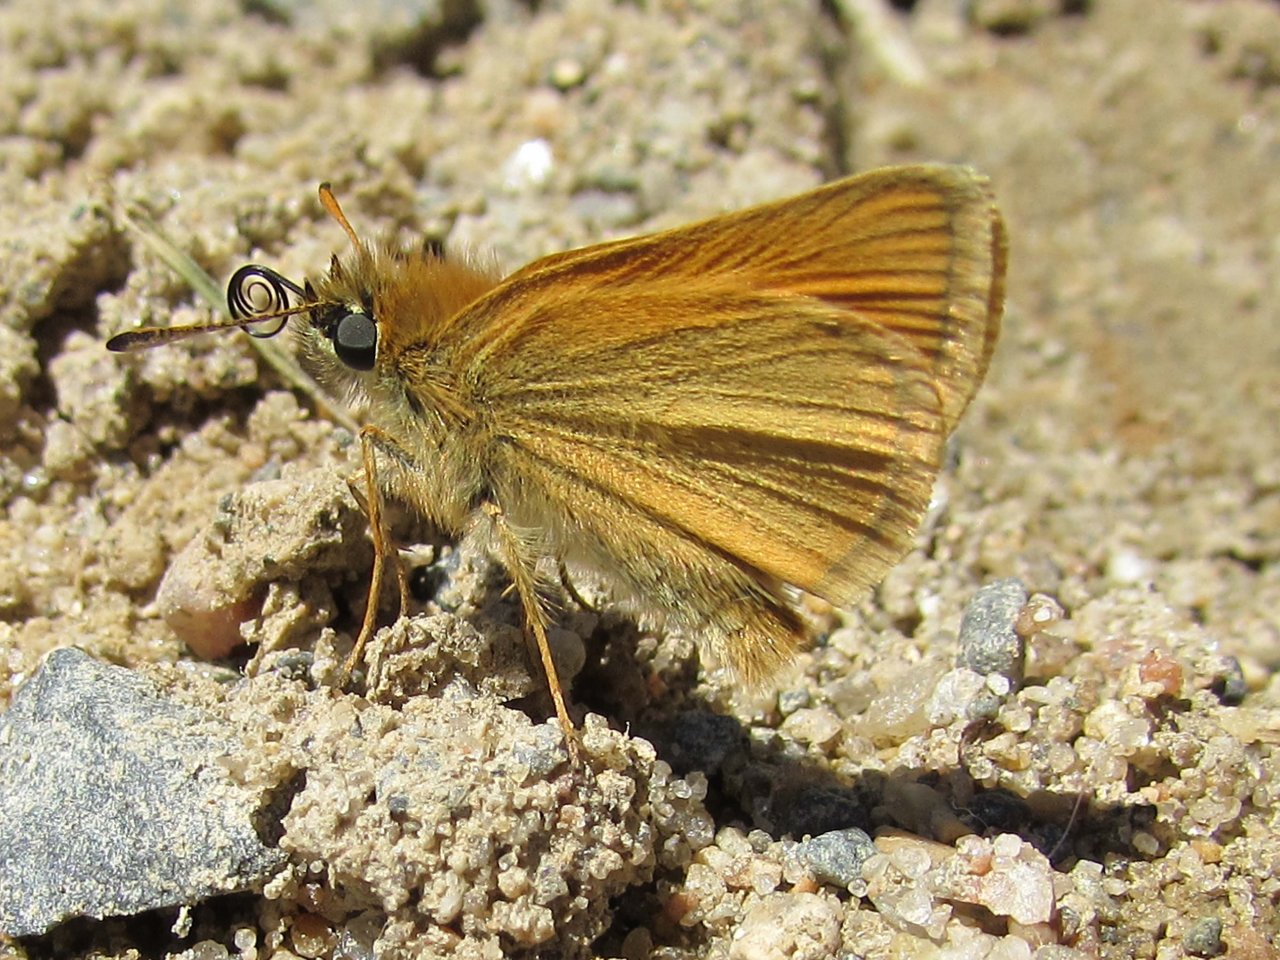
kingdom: Animalia
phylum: Arthropoda
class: Insecta
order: Lepidoptera
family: Hesperiidae
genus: Thymelicus
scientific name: Thymelicus lineola
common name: European Skipper
